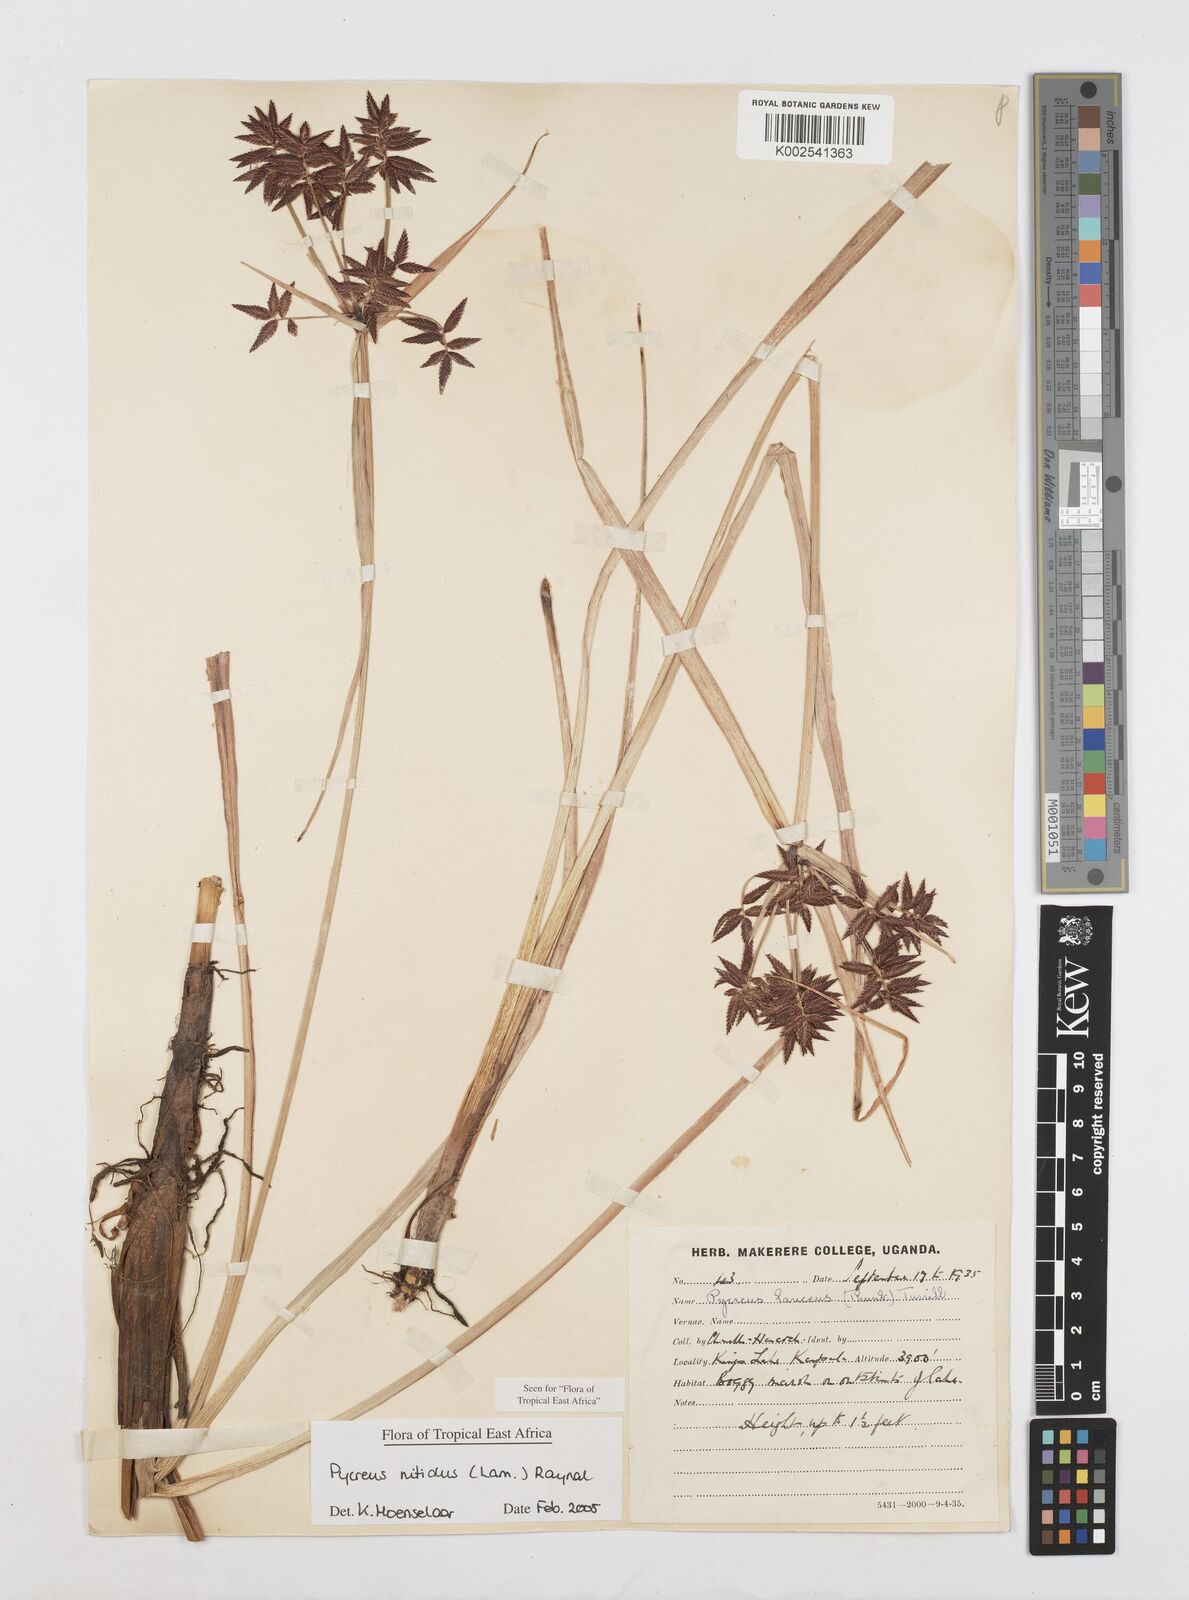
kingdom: Plantae
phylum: Tracheophyta
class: Liliopsida
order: Poales
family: Cyperaceae
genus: Cyperus
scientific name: Cyperus nitidus
